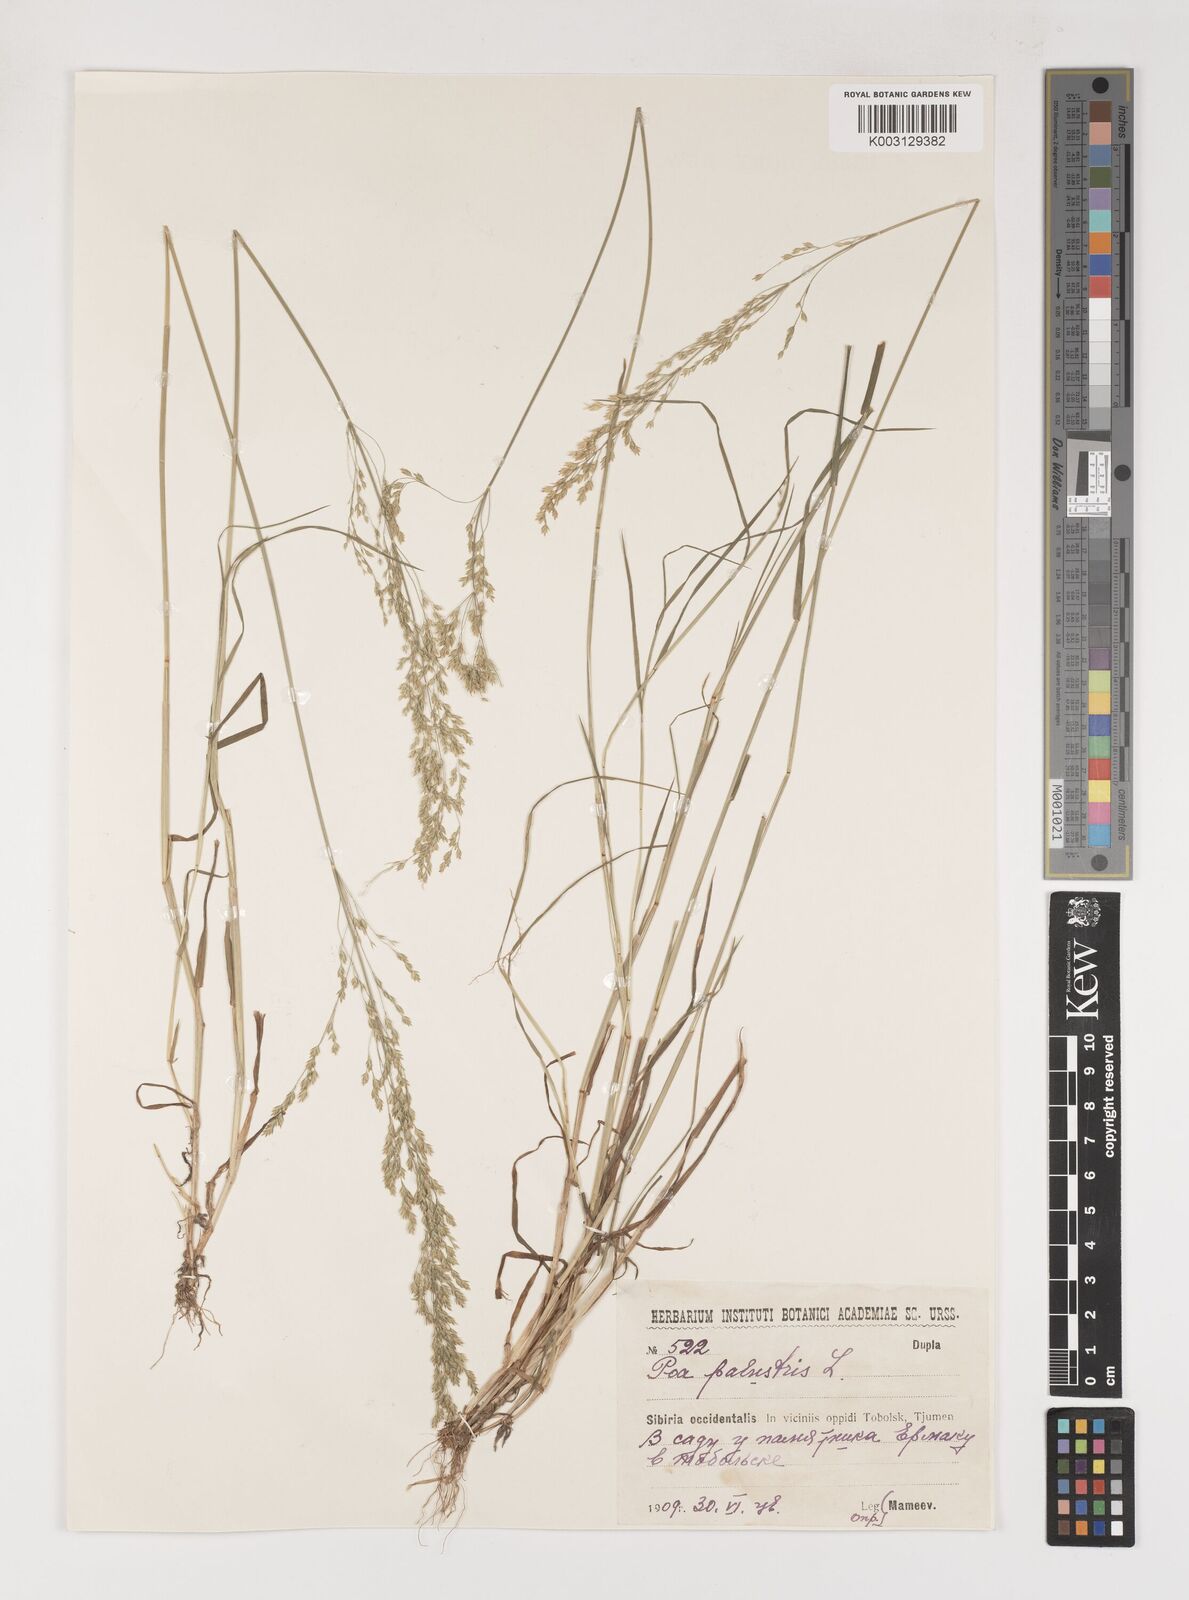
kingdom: Plantae
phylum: Tracheophyta
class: Liliopsida
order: Poales
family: Poaceae
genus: Poa
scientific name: Poa palustris
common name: Swamp meadow-grass
